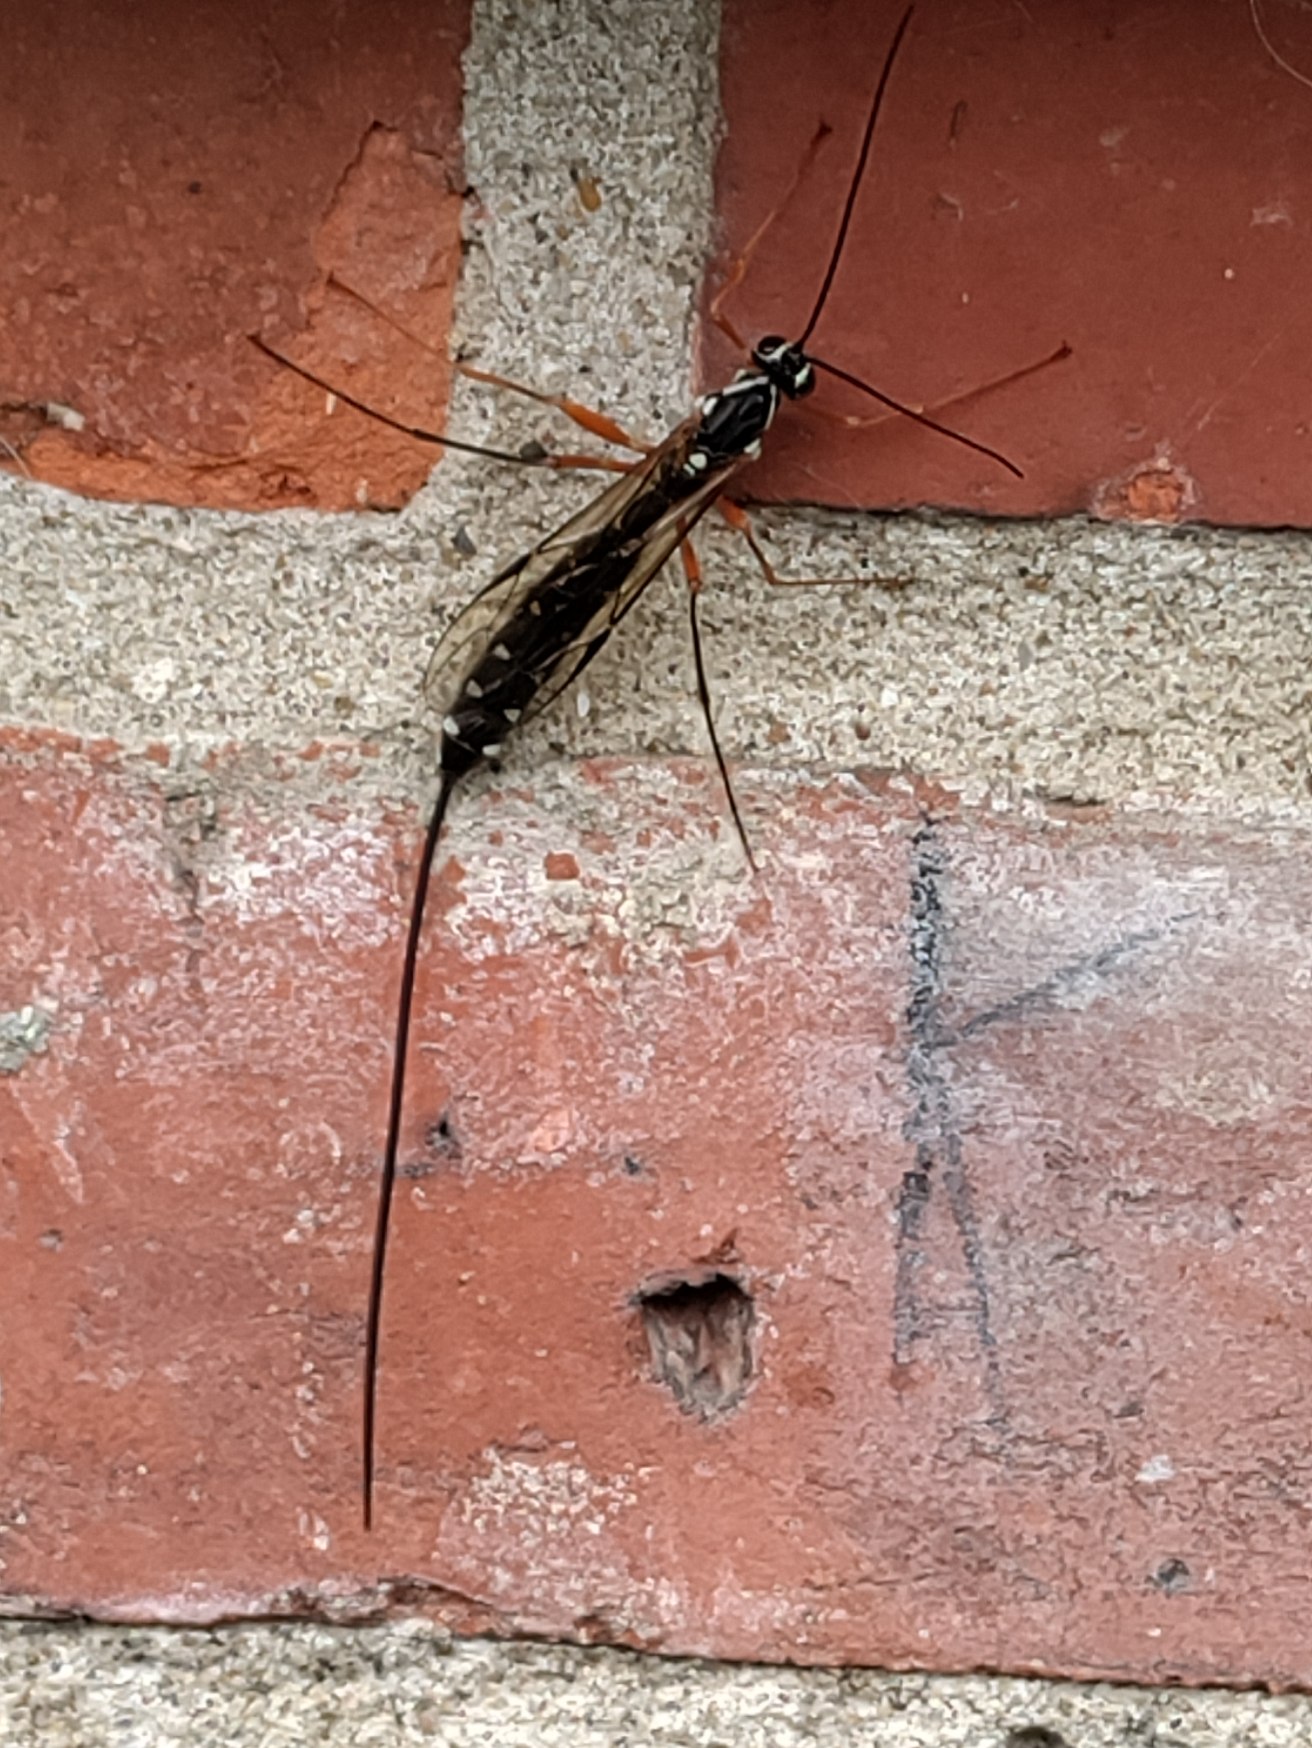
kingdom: Animalia
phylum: Arthropoda
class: Insecta
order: Hymenoptera
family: Ichneumonidae
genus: Rhyssa
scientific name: Rhyssa persuasoria
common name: Sabelhveps
